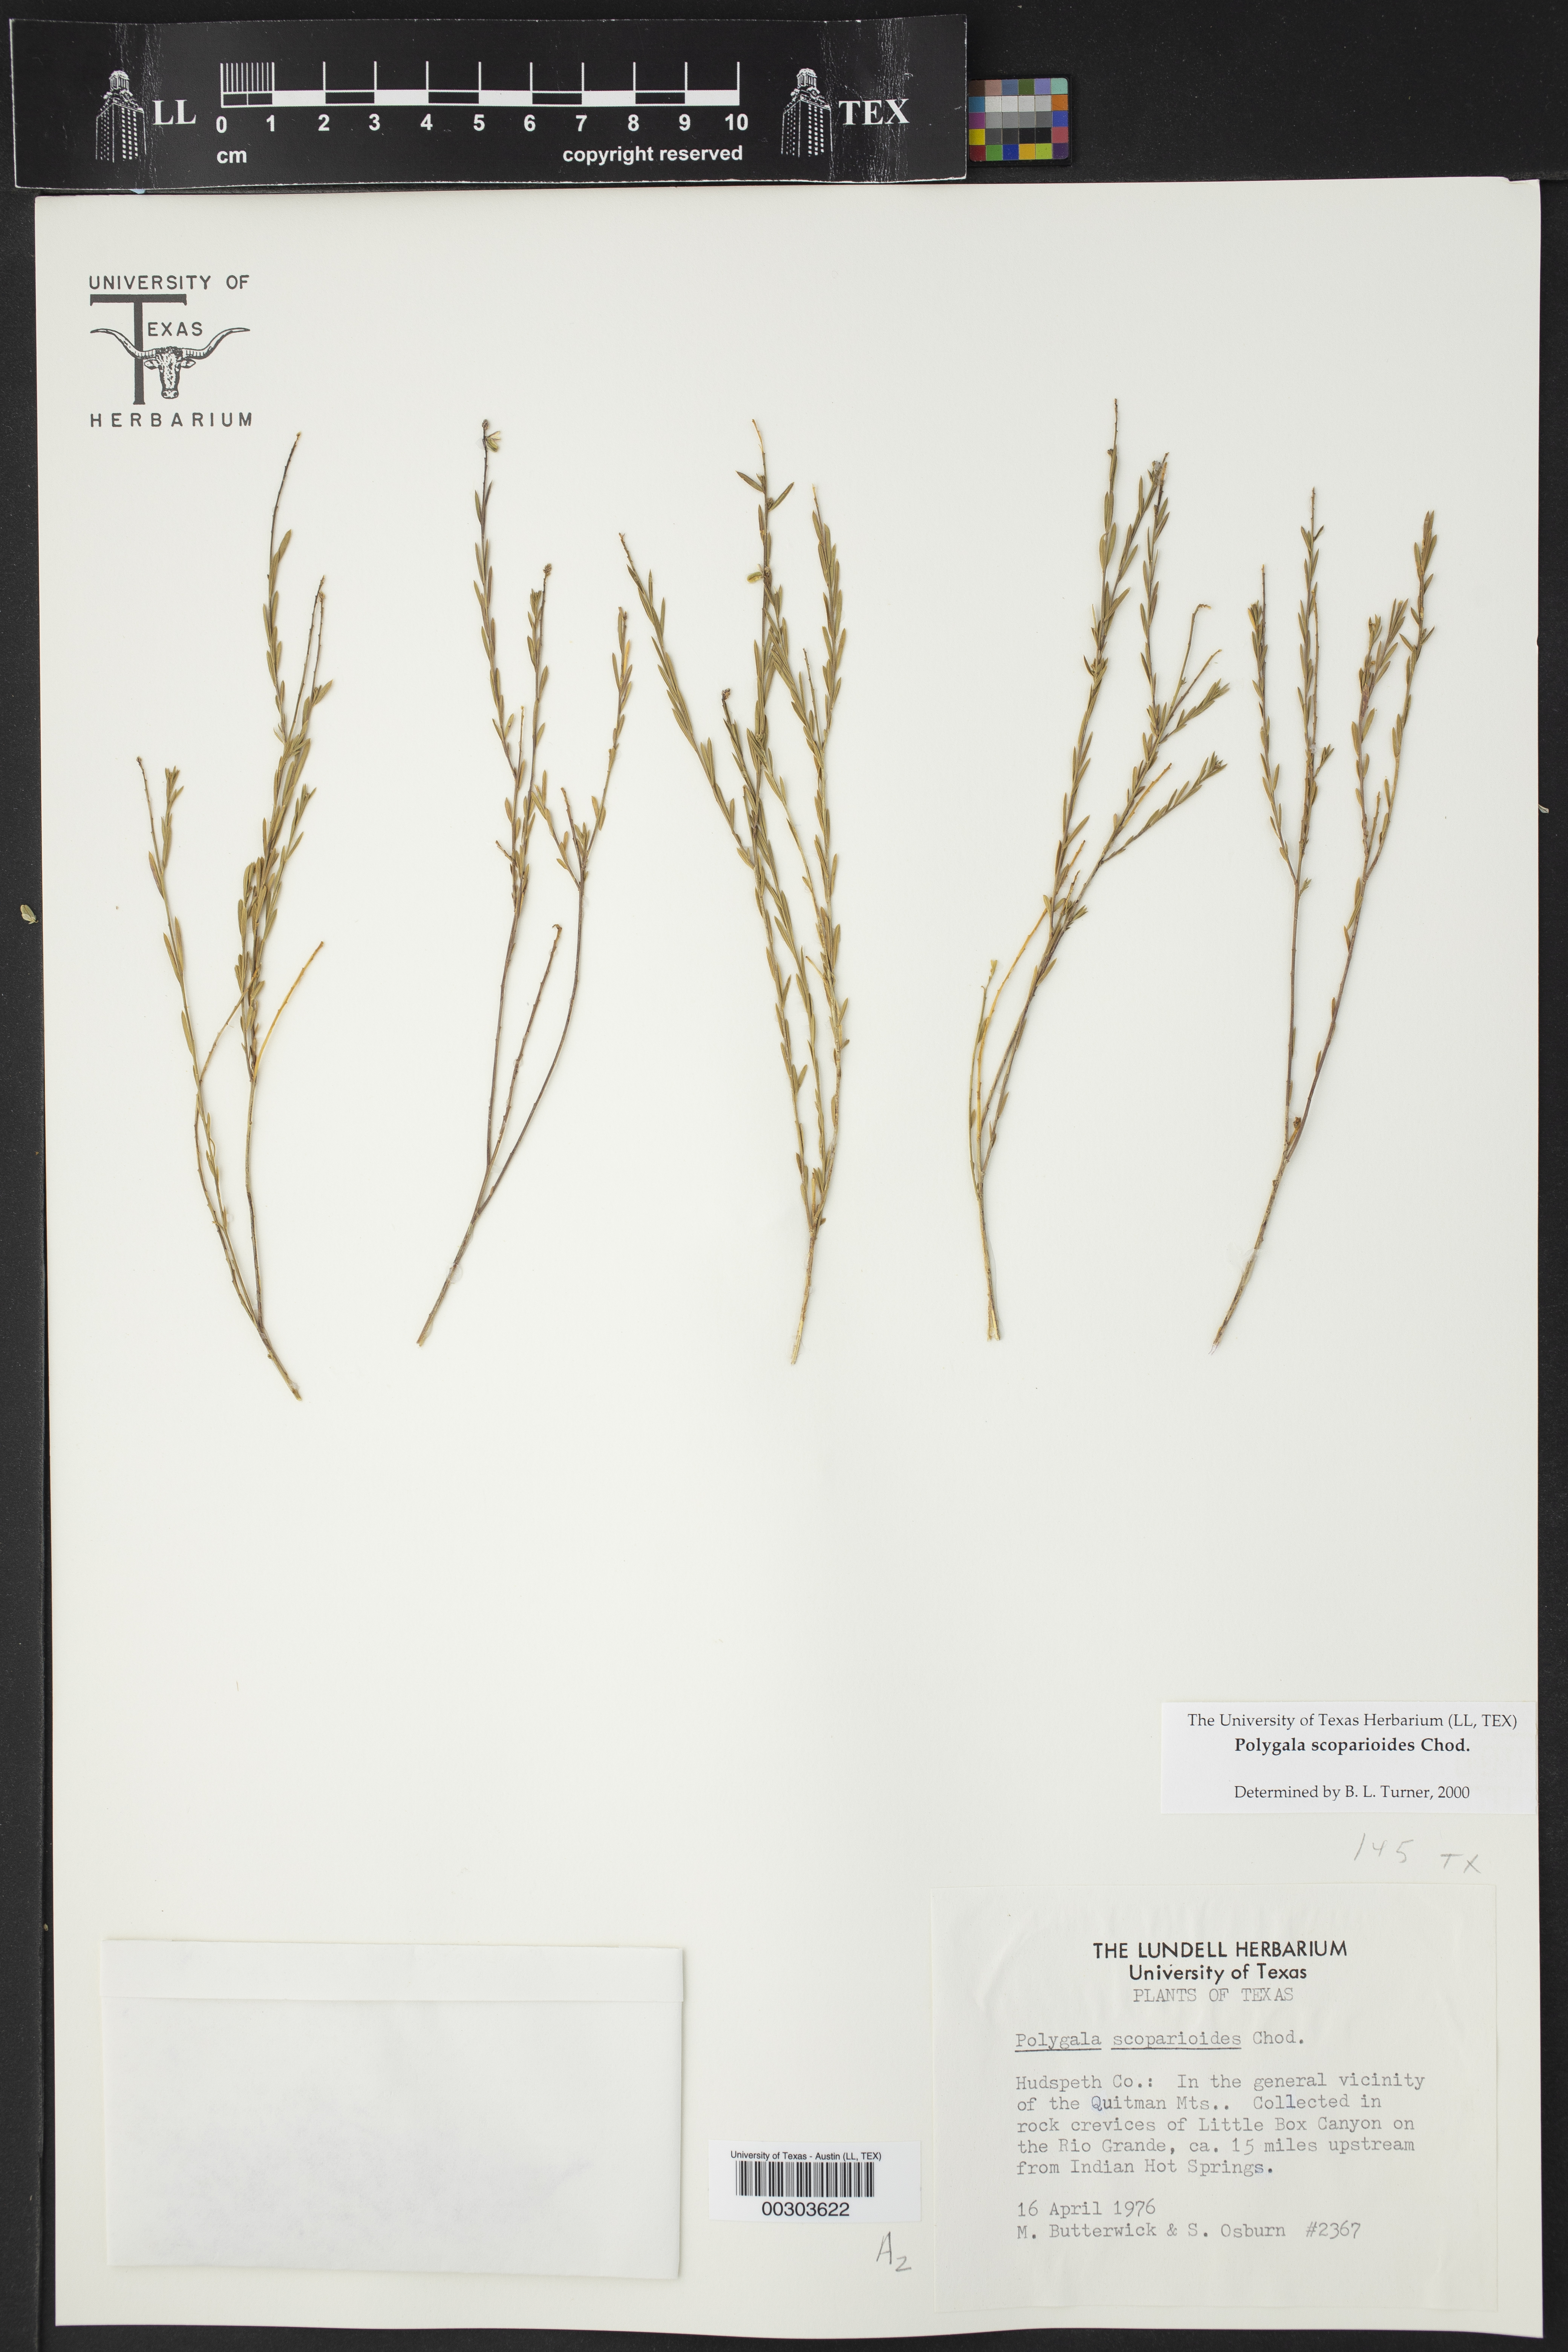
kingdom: Plantae
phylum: Tracheophyta
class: Magnoliopsida
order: Fabales
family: Polygalaceae
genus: Polygala
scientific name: Polygala scoparioides
